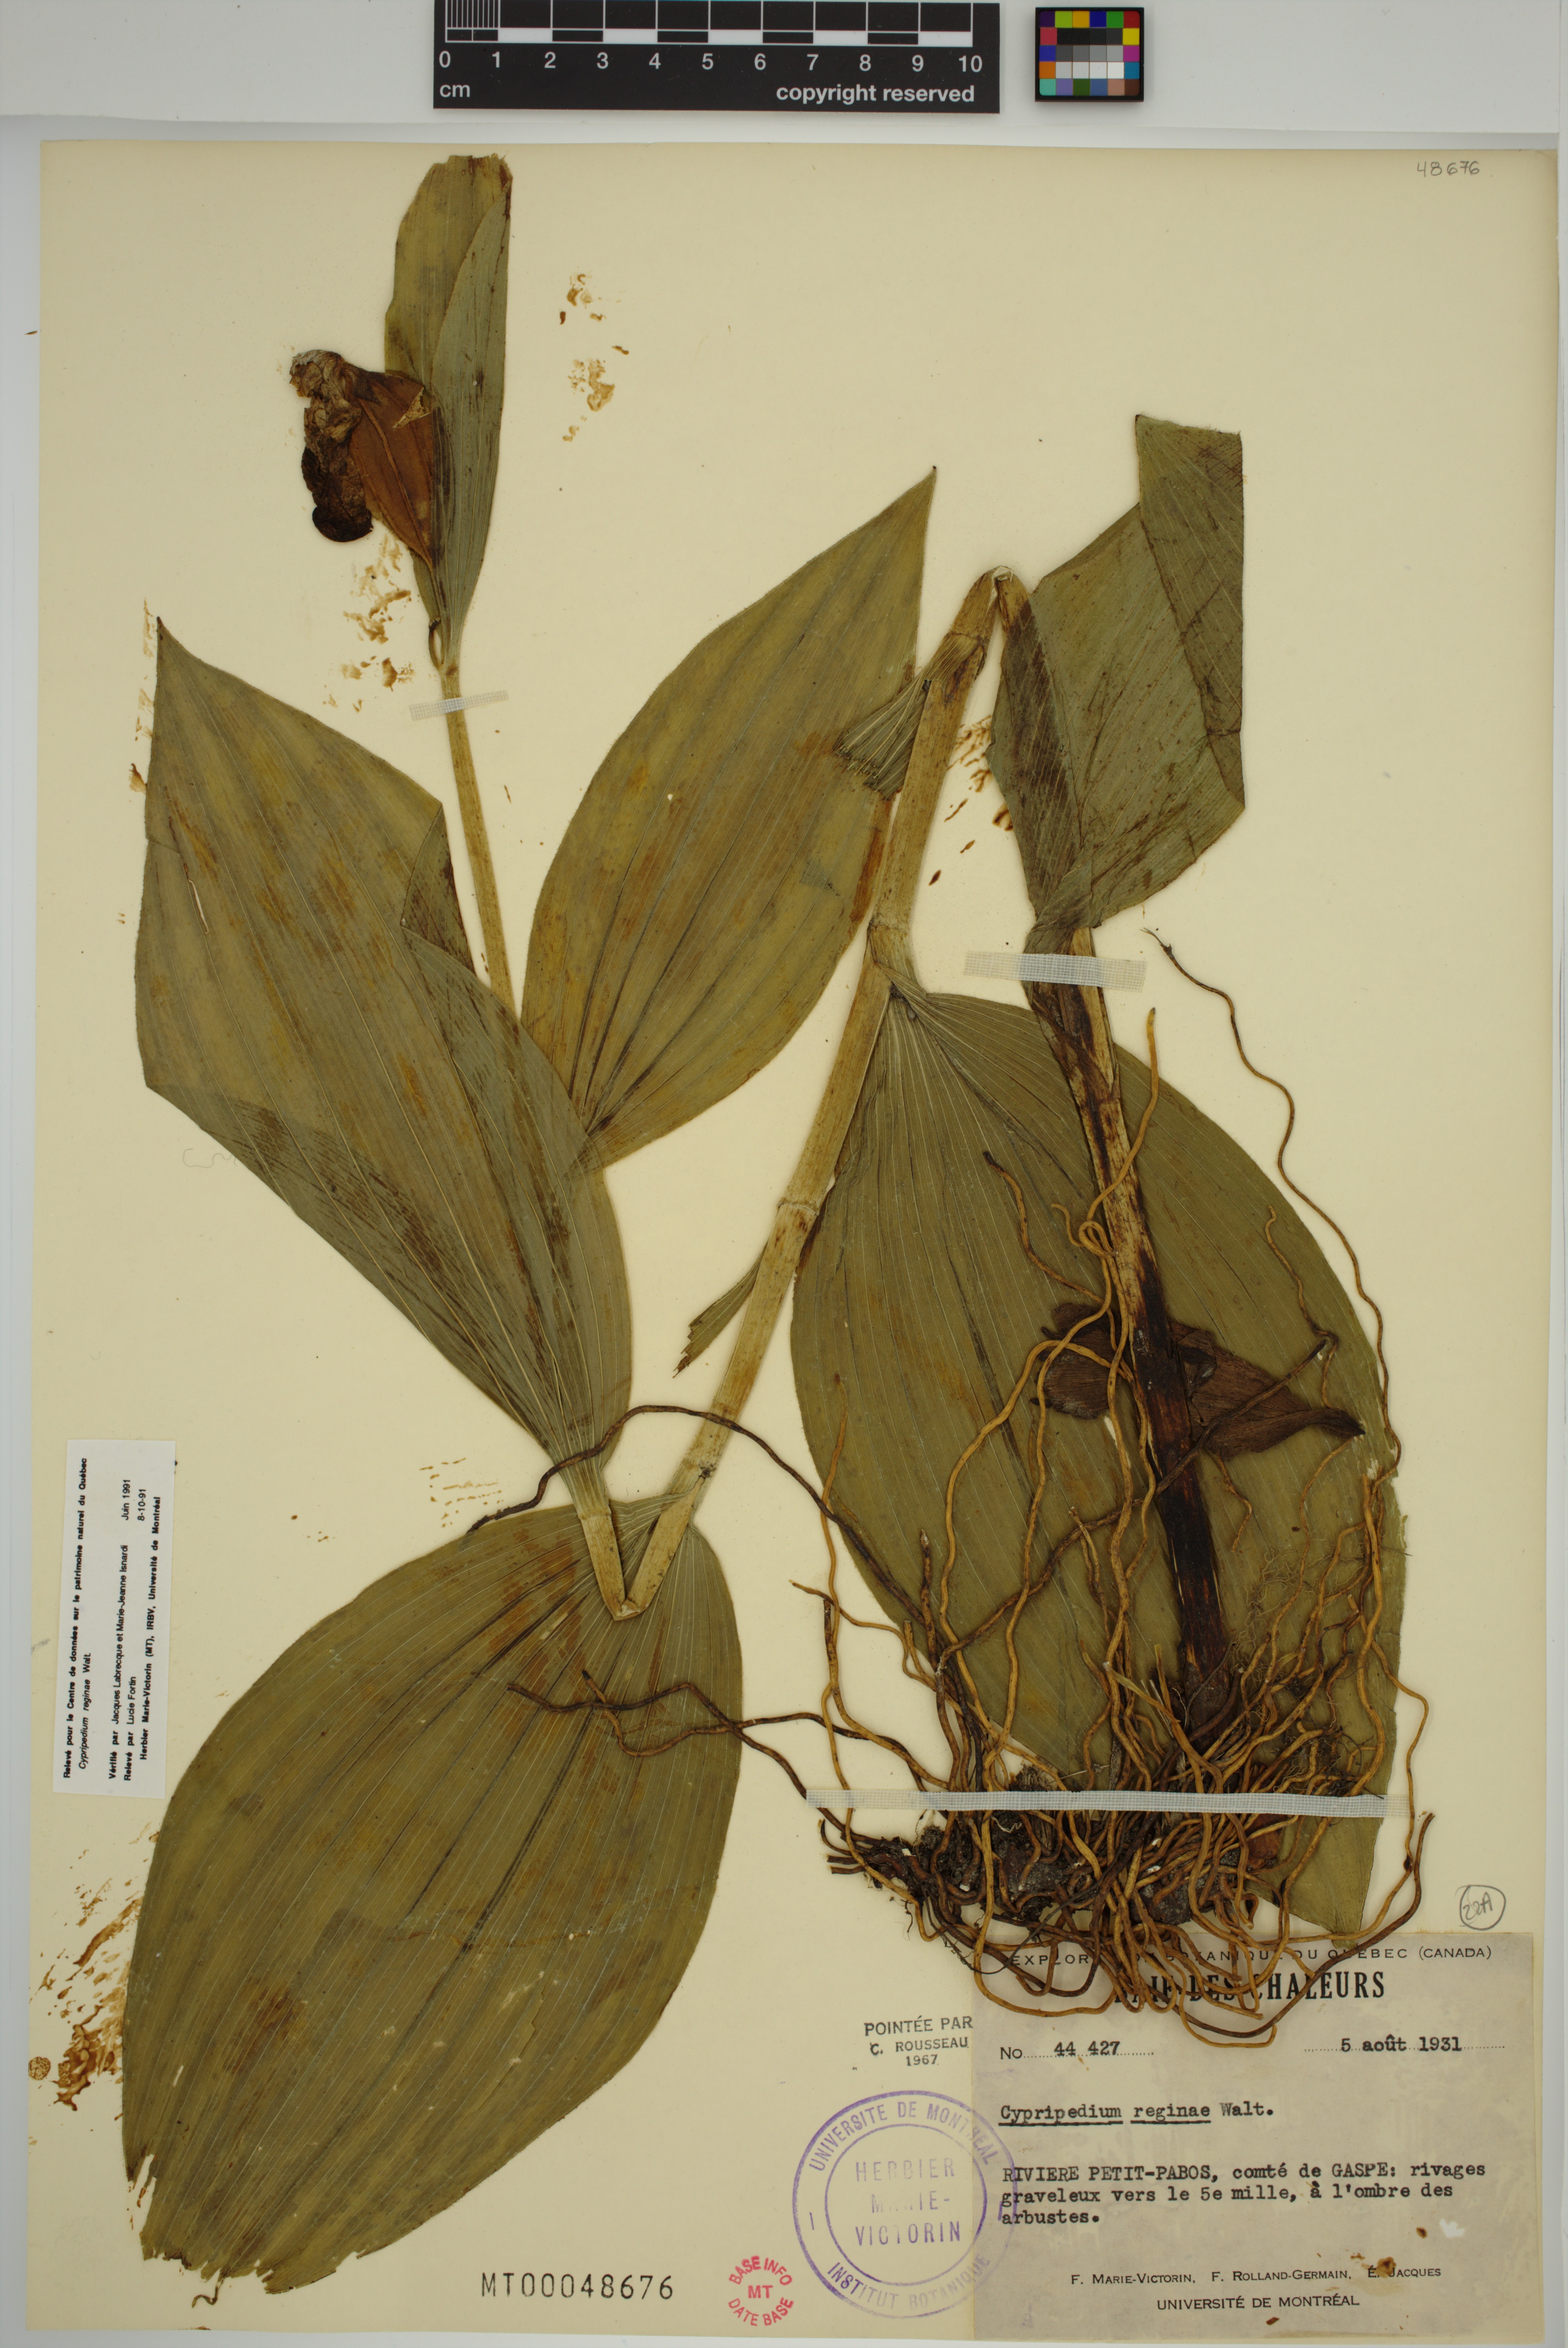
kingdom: Plantae
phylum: Tracheophyta
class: Liliopsida
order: Asparagales
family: Orchidaceae
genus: Cypripedium
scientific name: Cypripedium reginae
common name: Queen lady's-slipper
